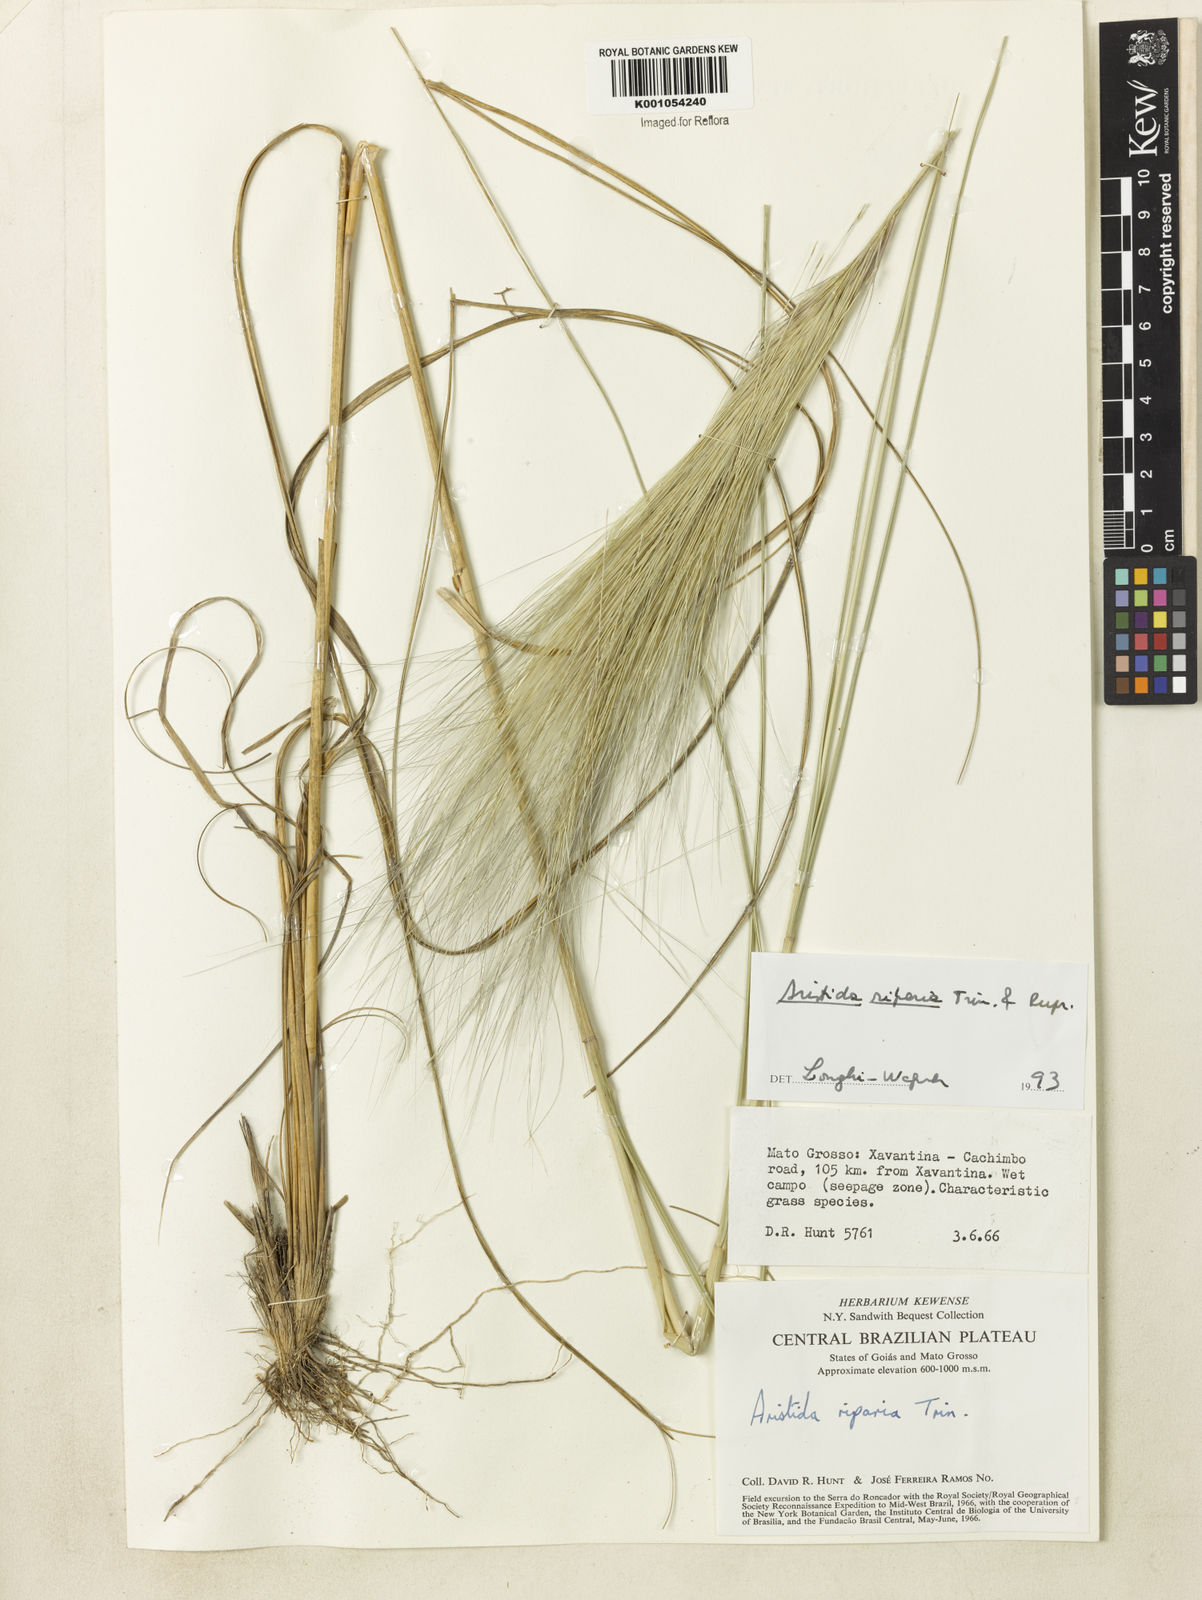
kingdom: Plantae
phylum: Tracheophyta
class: Liliopsida
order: Poales
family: Poaceae
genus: Aristida
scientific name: Aristida riparia
